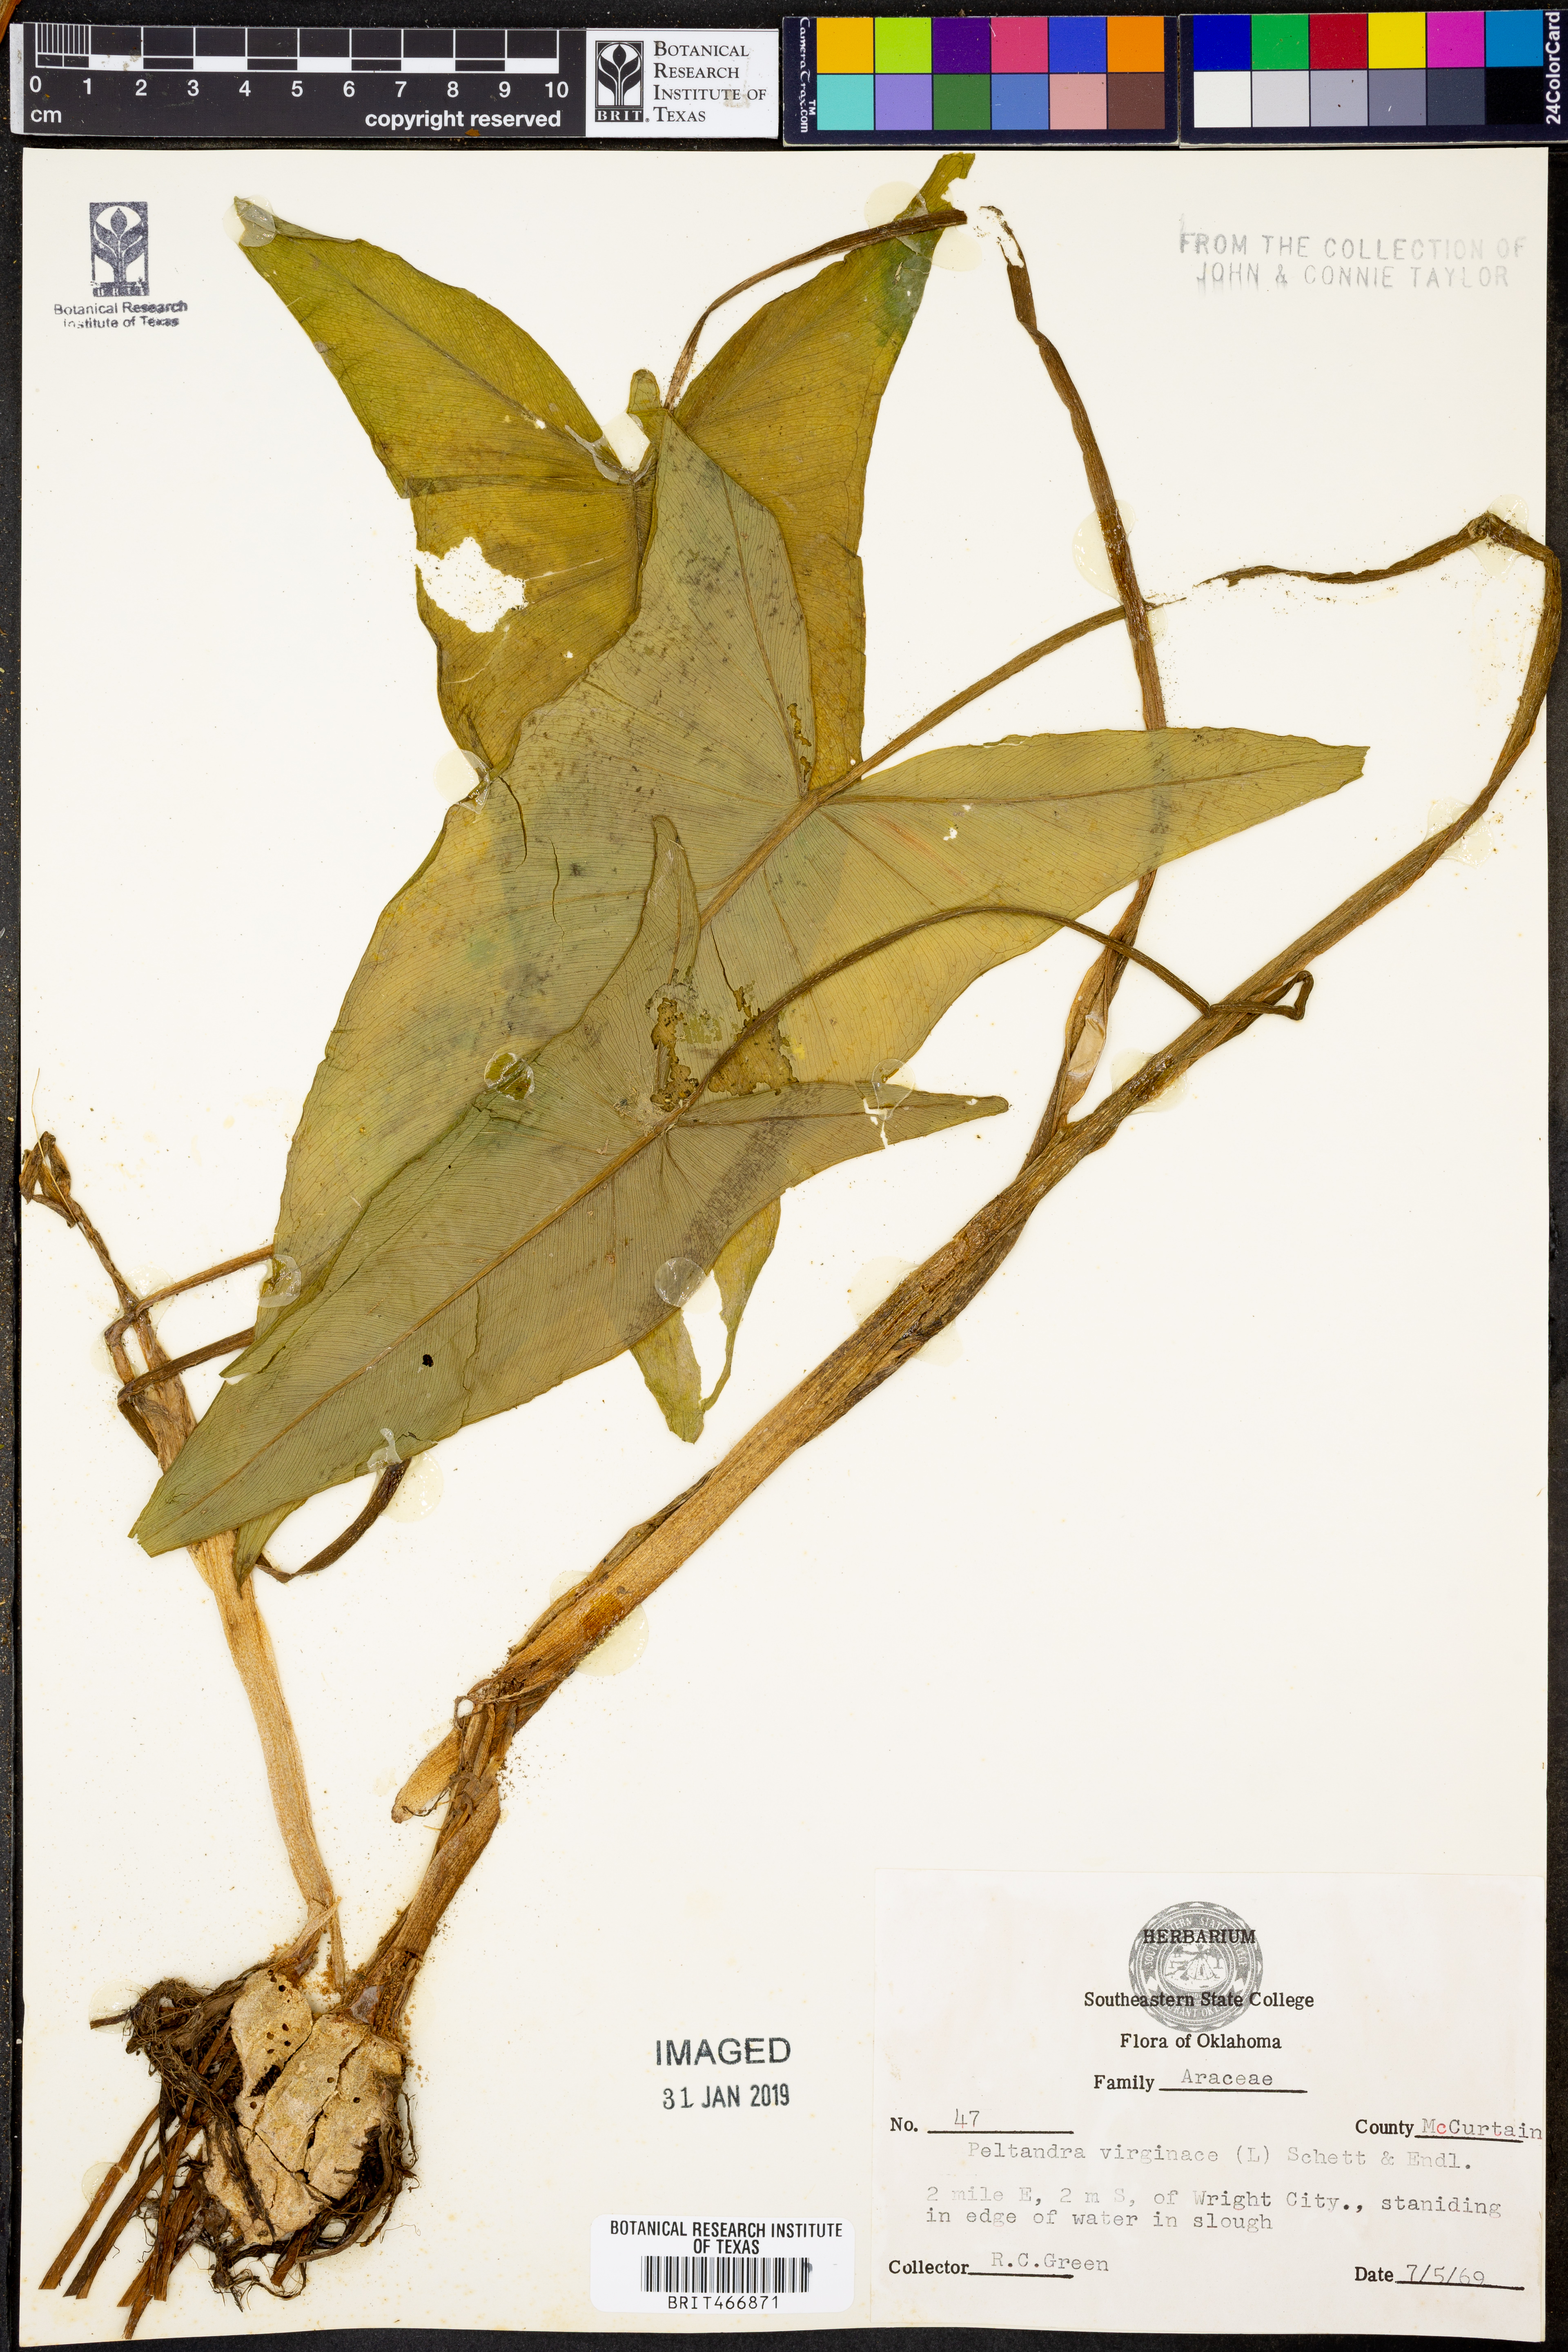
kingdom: Plantae
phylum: Tracheophyta
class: Liliopsida
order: Alismatales
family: Araceae
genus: Peltandra
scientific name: Peltandra virginica
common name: Arrow arum
